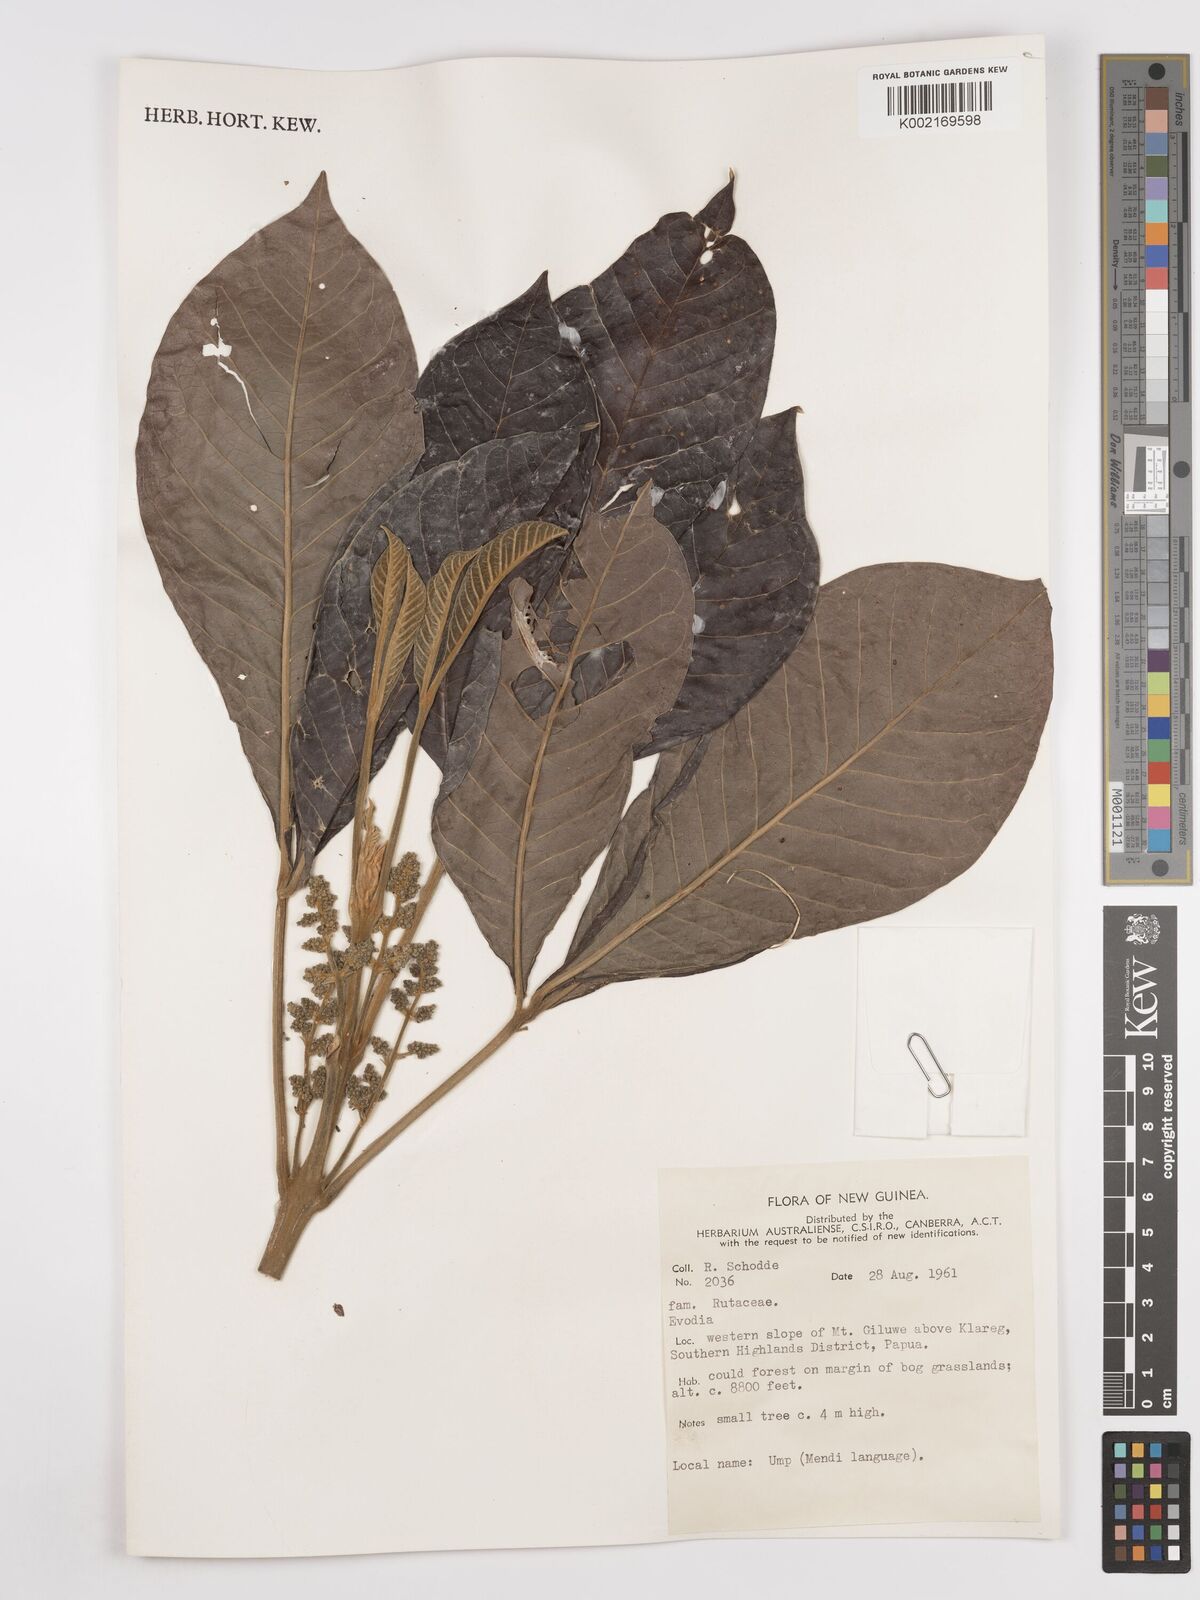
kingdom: Plantae
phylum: Tracheophyta
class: Magnoliopsida
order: Sapindales
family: Rutaceae
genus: Euodia
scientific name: Euodia
